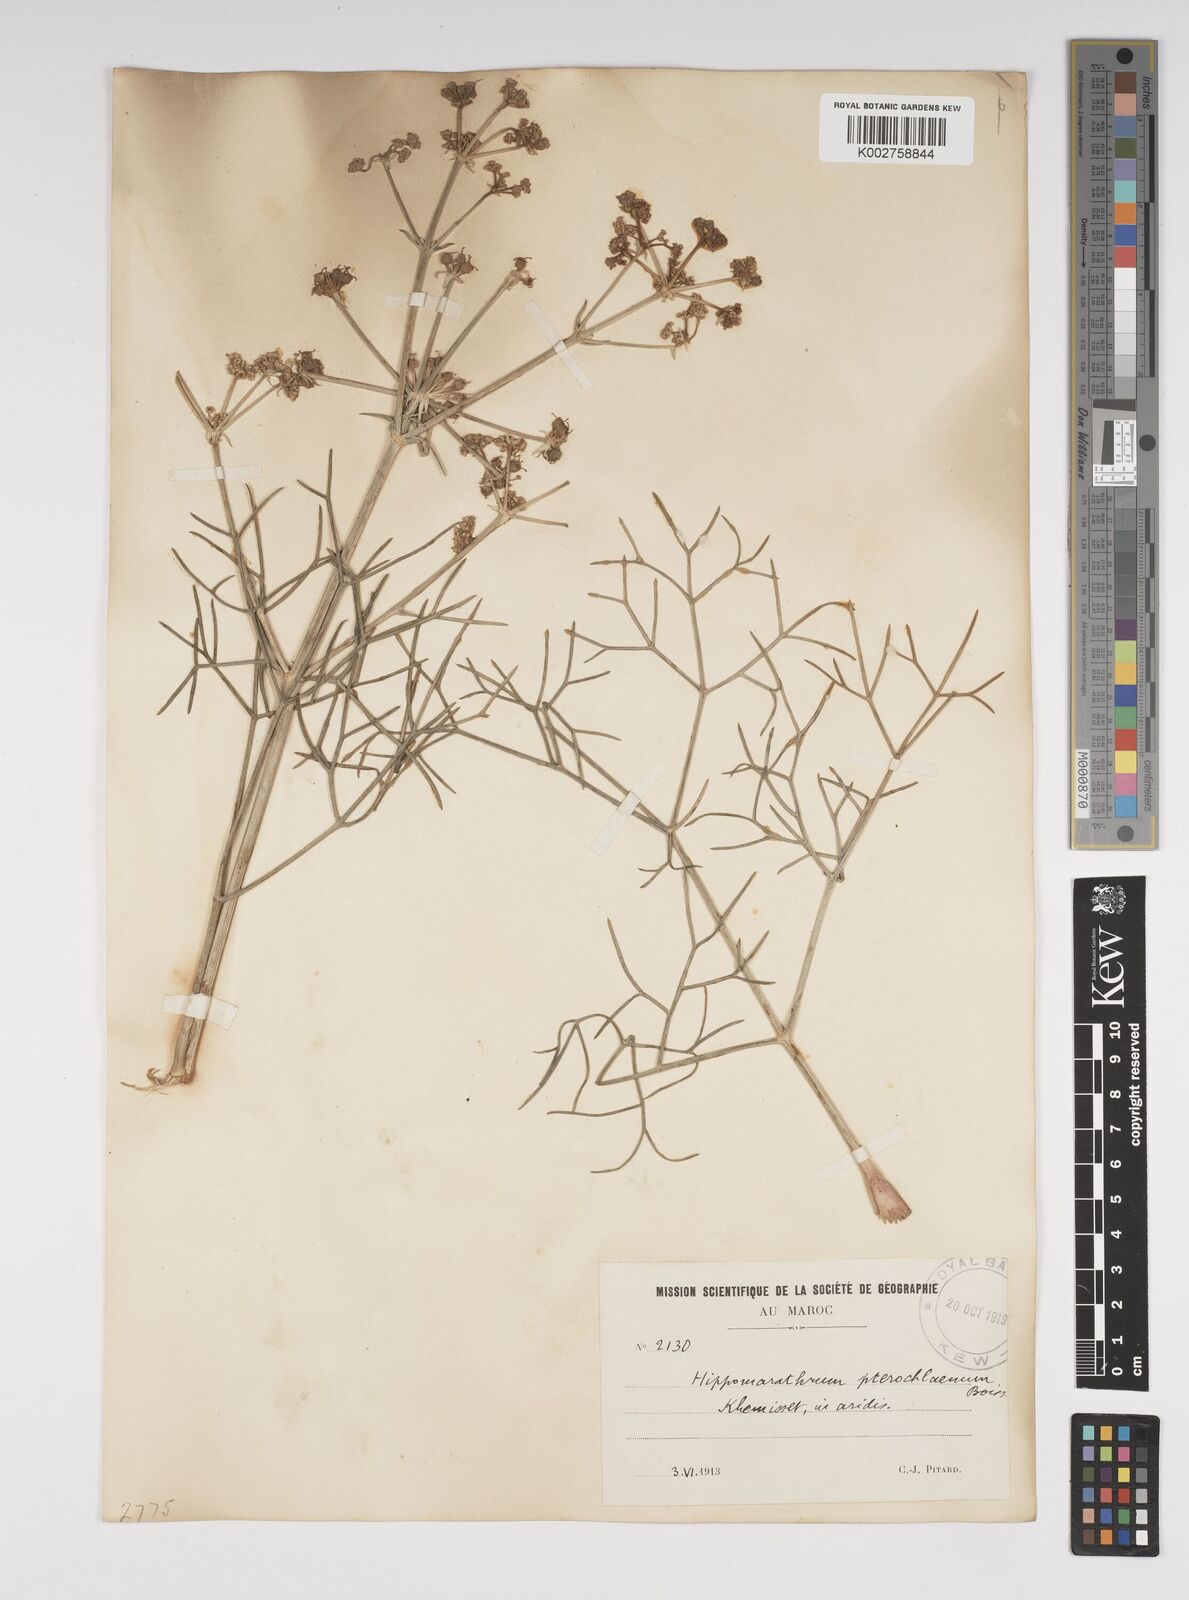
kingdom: Plantae
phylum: Tracheophyta
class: Magnoliopsida
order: Apiales
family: Apiaceae
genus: Cachrys
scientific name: Cachrys sicula
